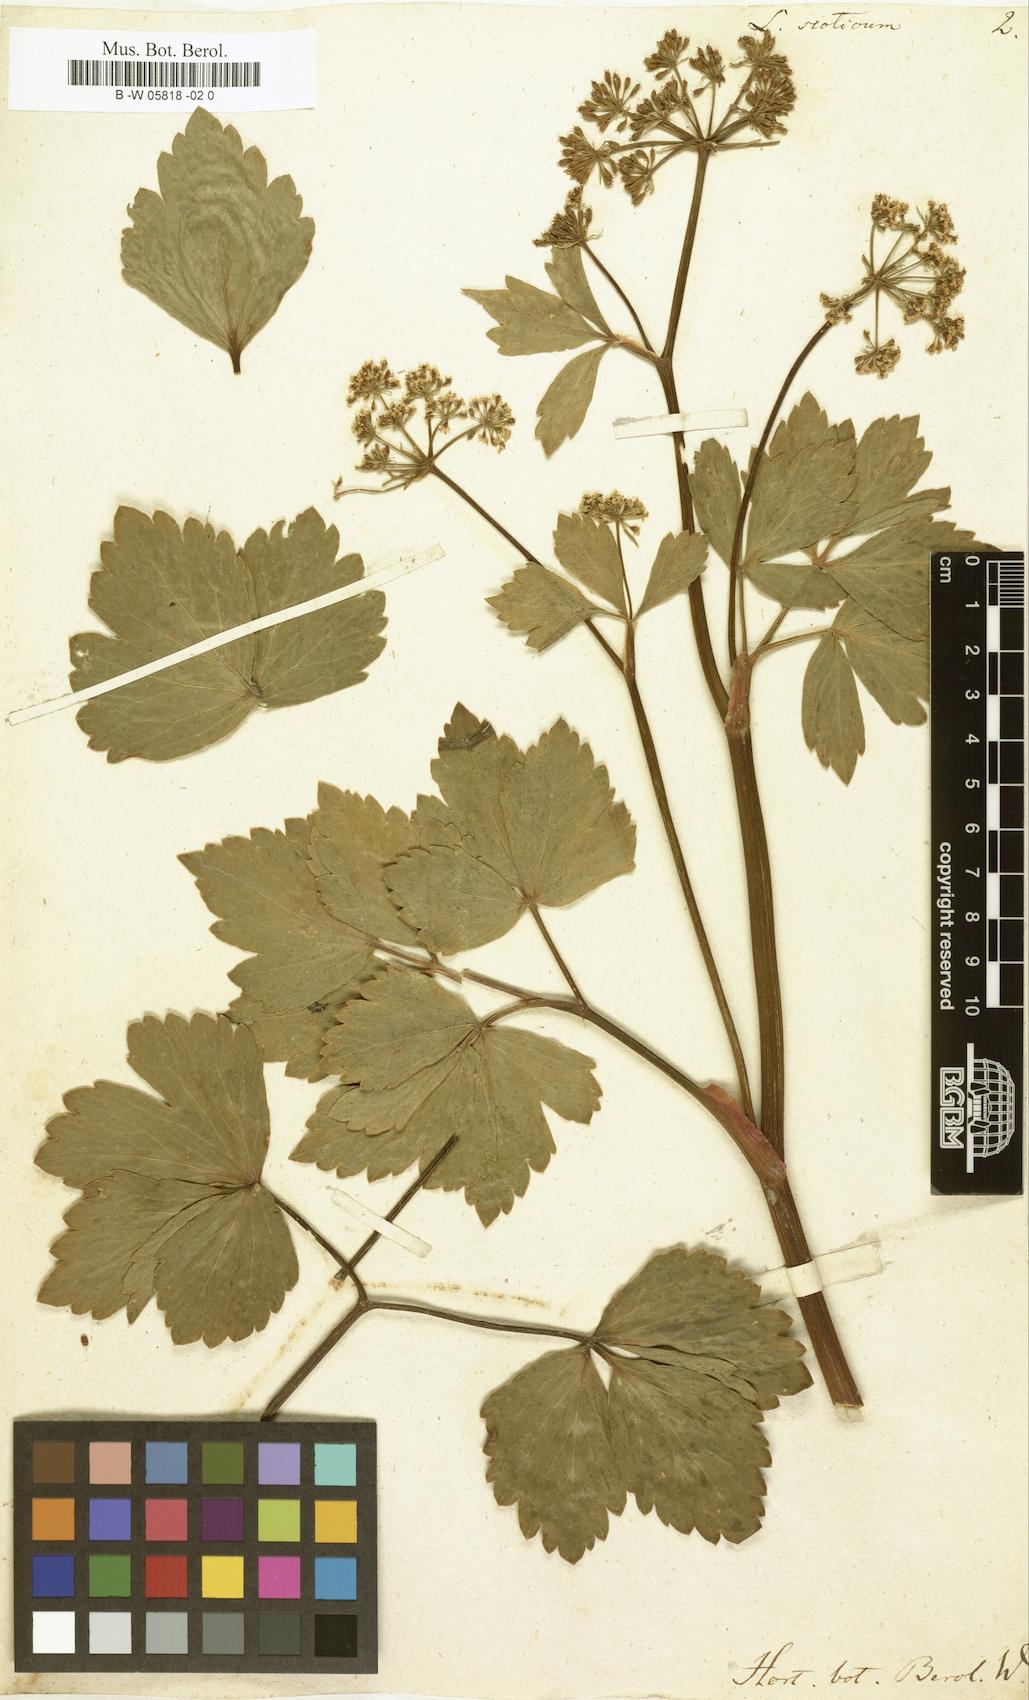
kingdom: Plantae
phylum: Tracheophyta
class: Magnoliopsida
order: Apiales
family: Apiaceae
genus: Ligusticum
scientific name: Ligusticum scothicum
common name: Beach lovage
